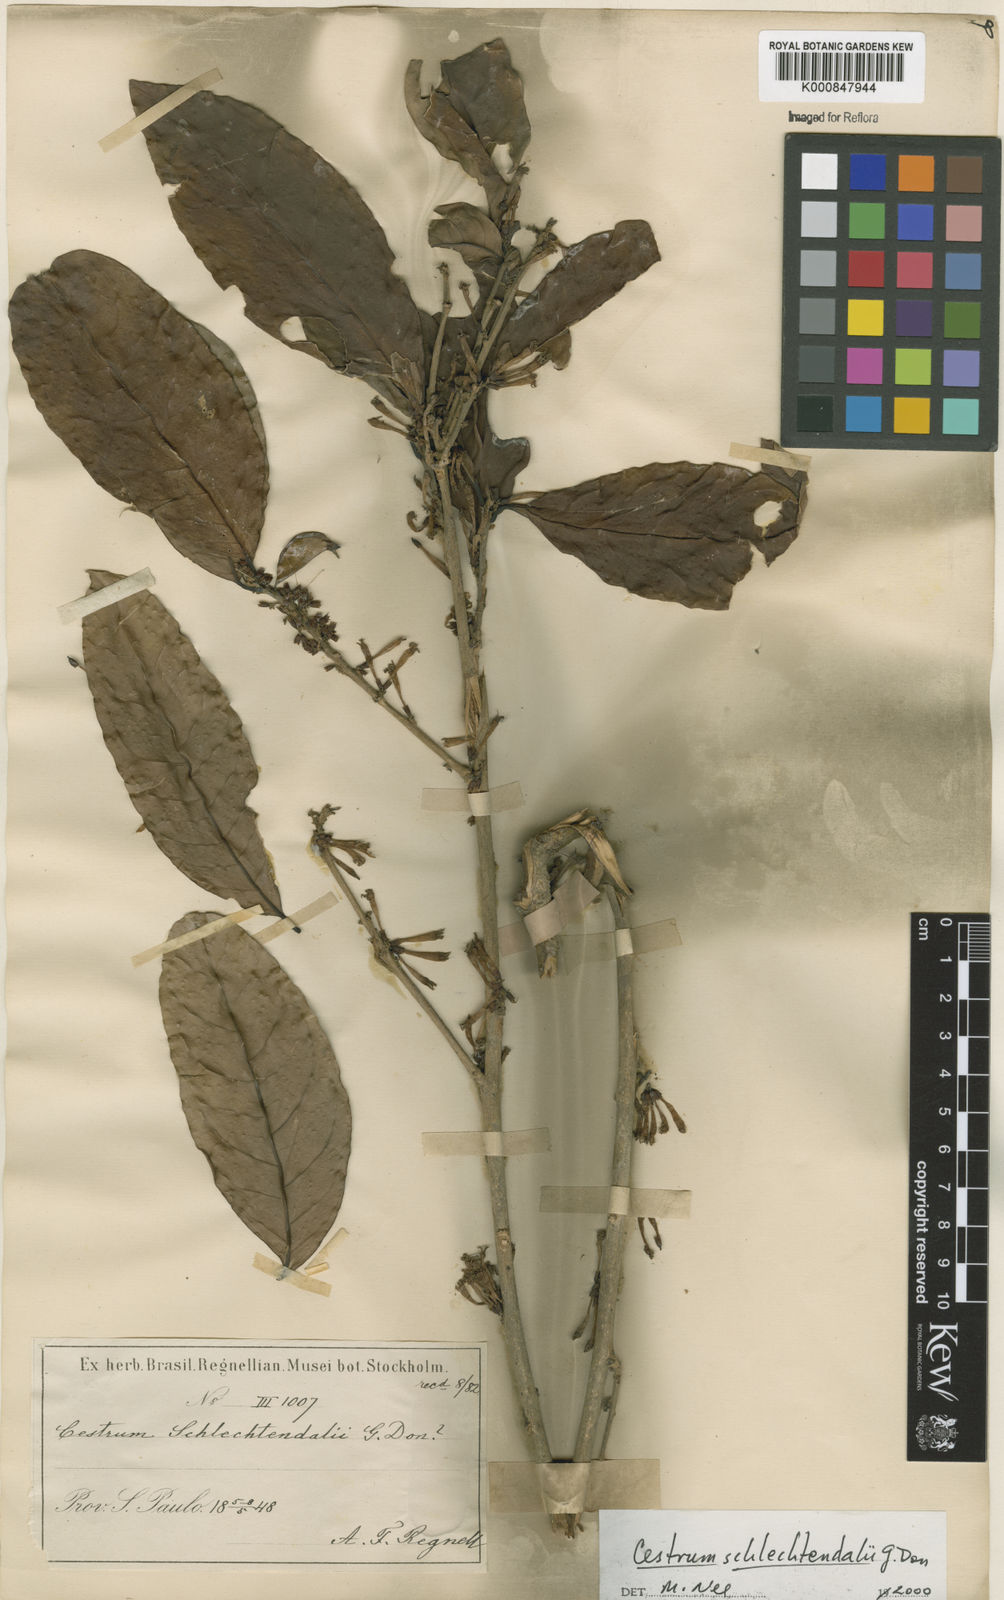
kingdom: Plantae
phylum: Tracheophyta
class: Magnoliopsida
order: Solanales
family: Solanaceae
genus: Cestrum
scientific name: Cestrum schlechtendalii
